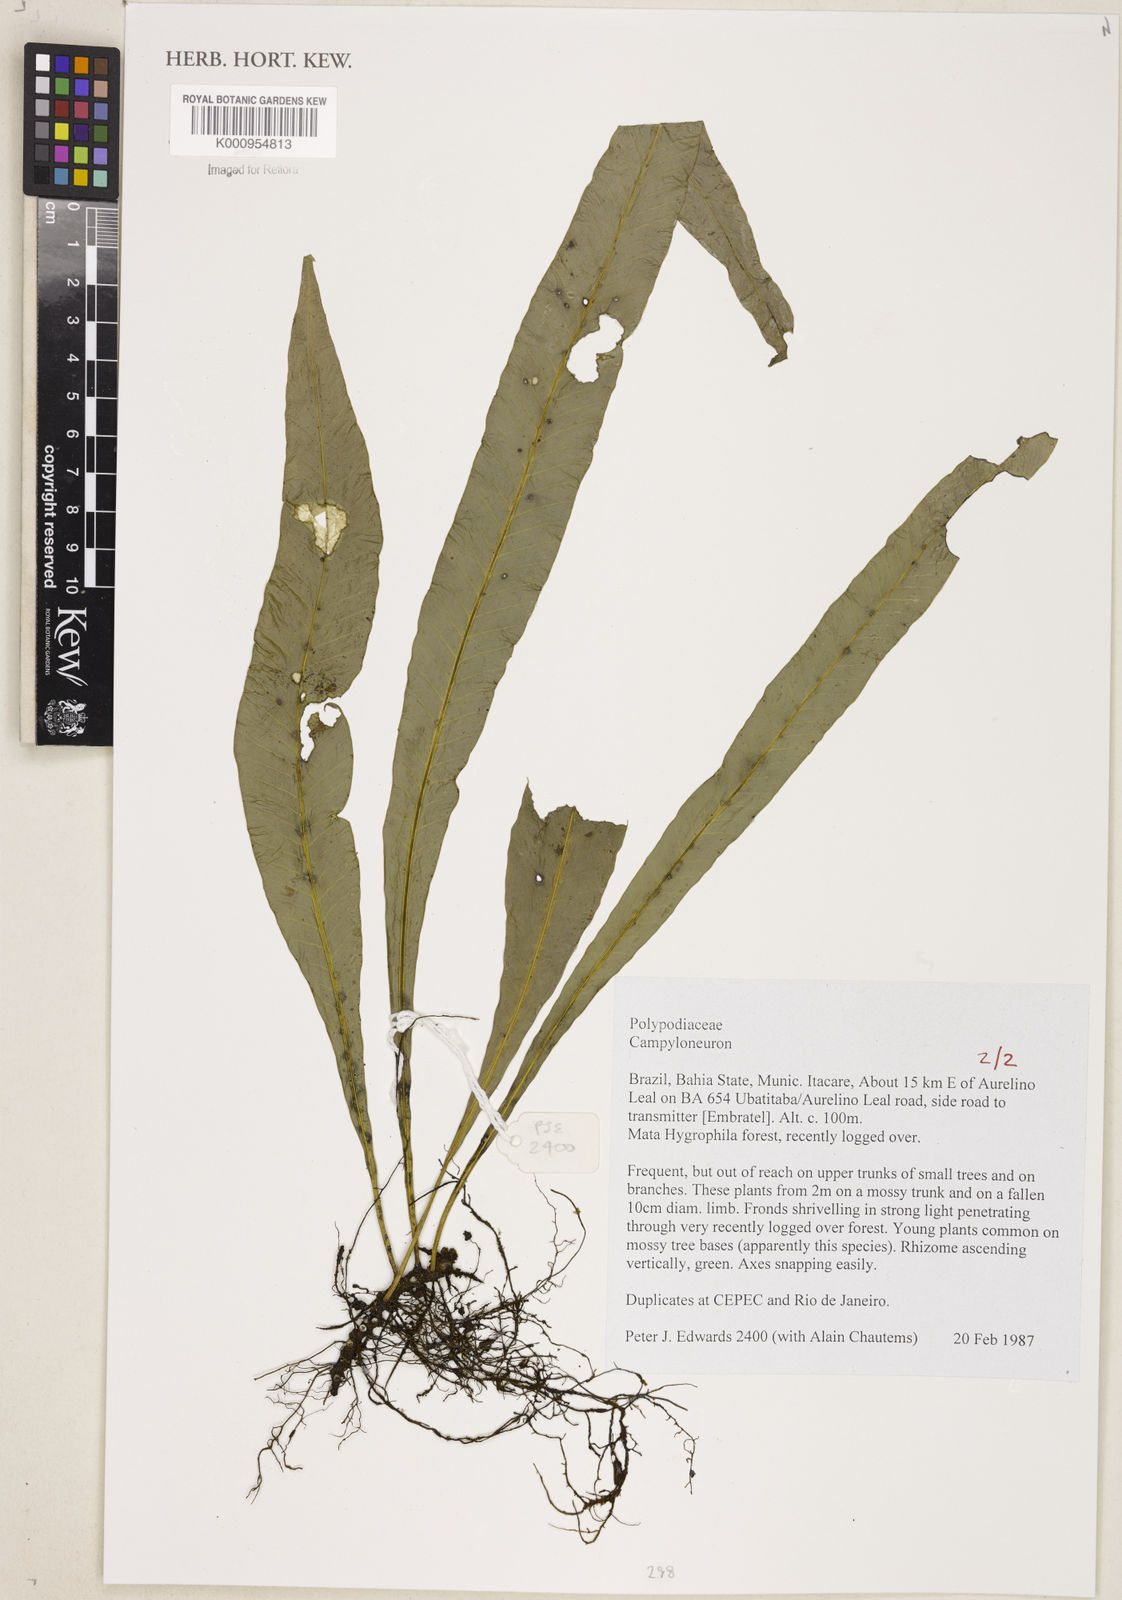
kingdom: Plantae
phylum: Tracheophyta
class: Polypodiopsida
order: Polypodiales
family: Polypodiaceae
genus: Campyloneurum
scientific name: Campyloneurum
